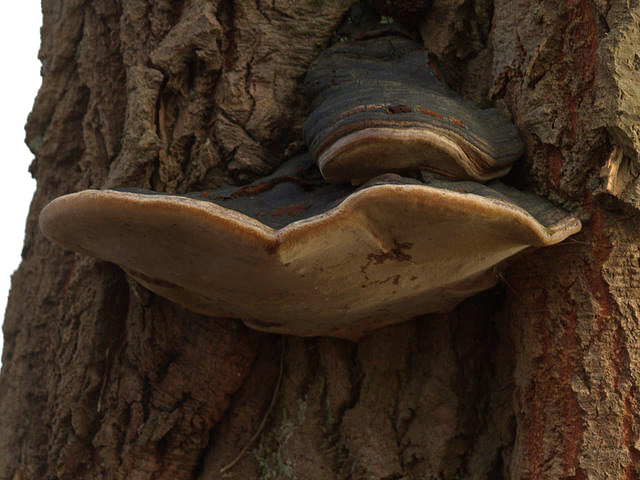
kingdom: Fungi
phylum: Basidiomycota
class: Agaricomycetes
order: Hymenochaetales
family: Hymenochaetaceae
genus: Phellinus
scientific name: Phellinus populicola
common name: poppel-ildporesvamp
